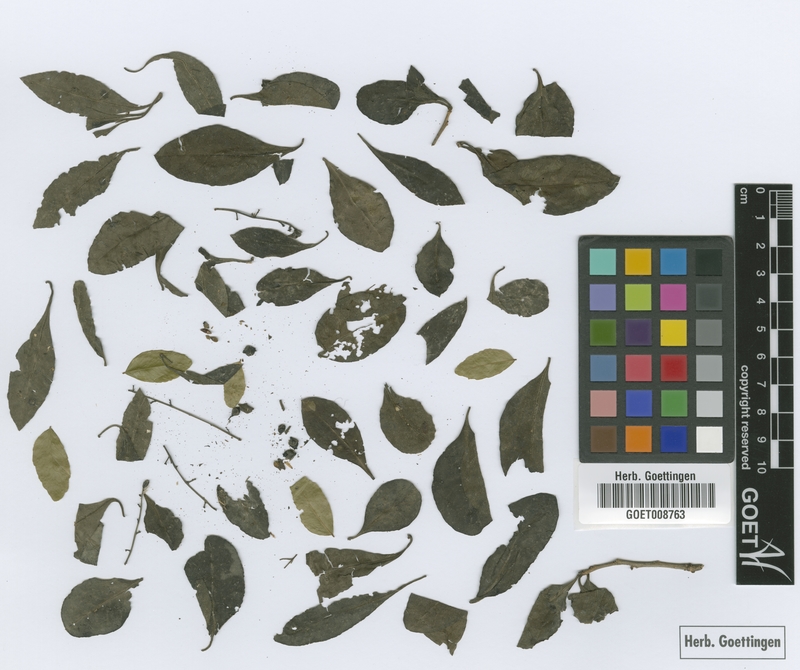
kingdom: Plantae
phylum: Tracheophyta
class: Magnoliopsida
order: Caryophyllales
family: Achatocarpaceae
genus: Achatocarpus
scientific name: Achatocarpus praecox
